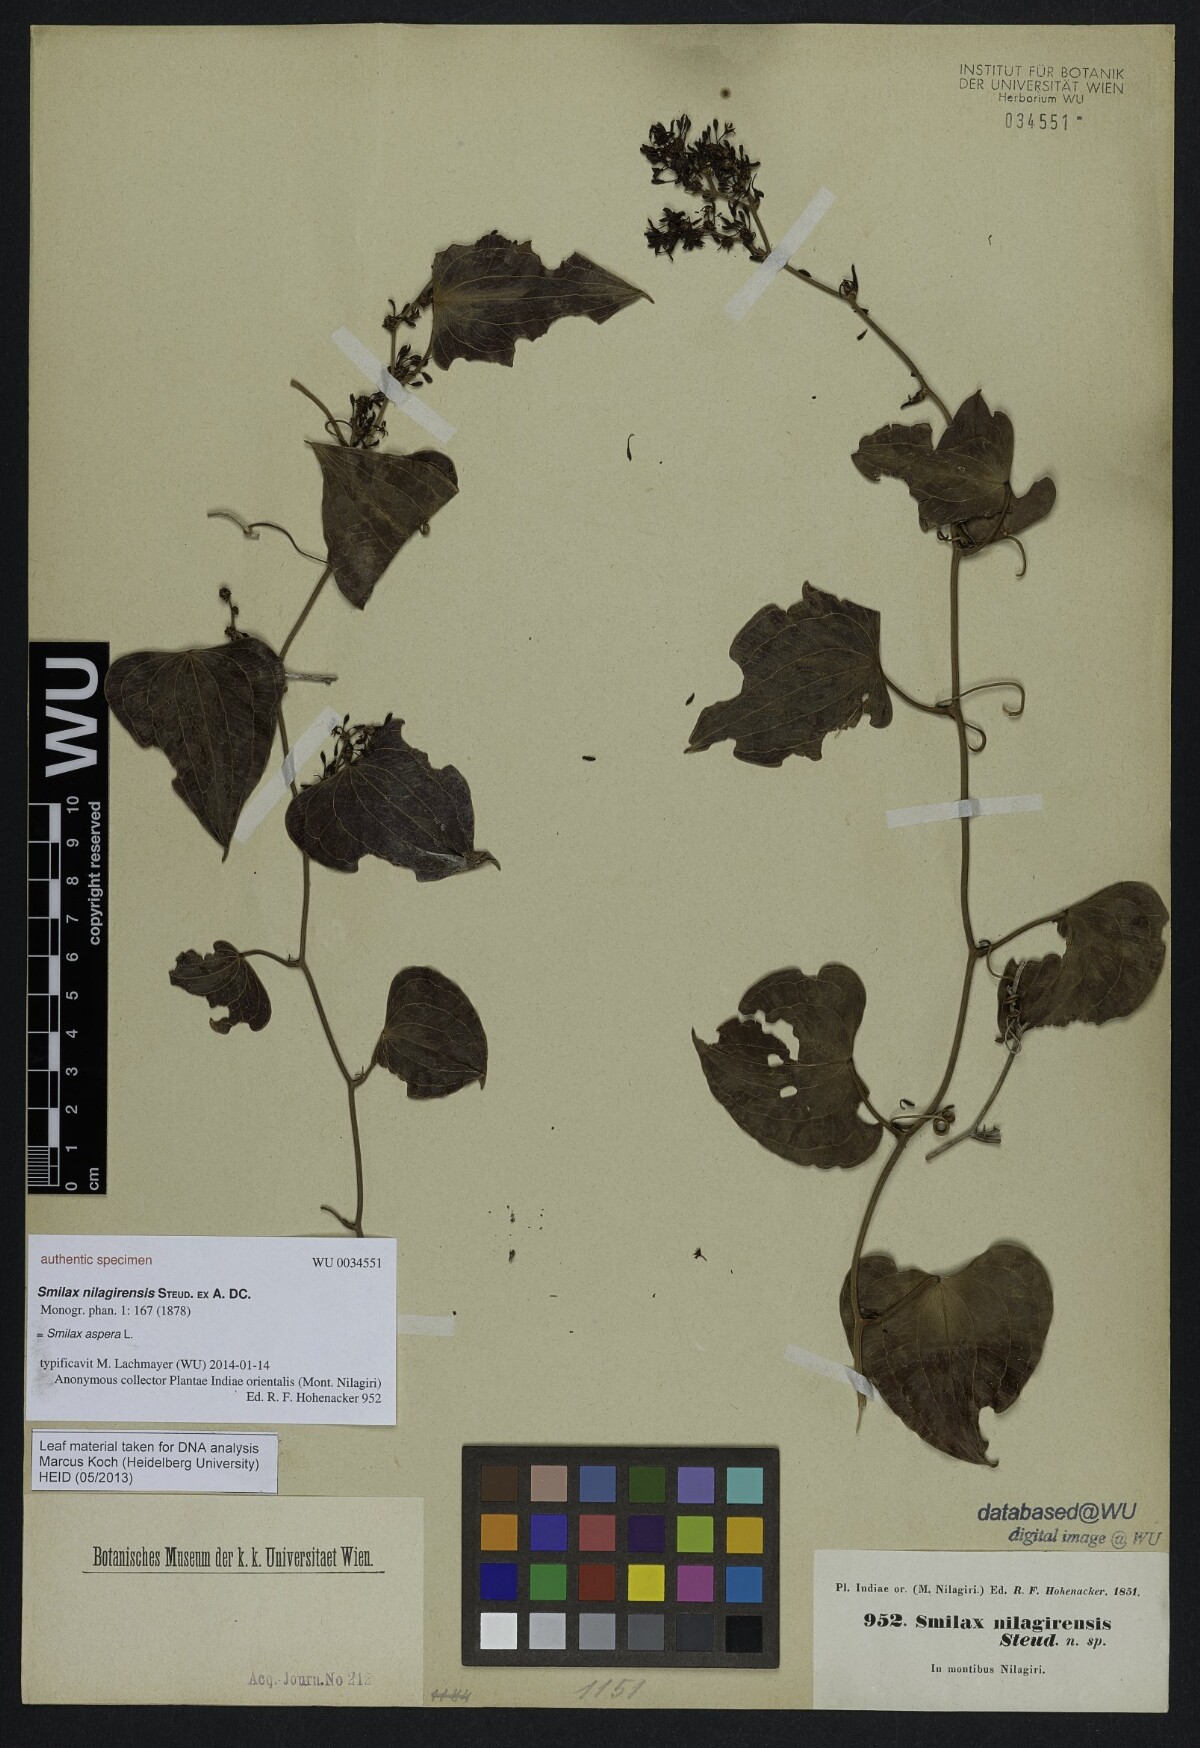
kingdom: Plantae
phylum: Tracheophyta
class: Liliopsida
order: Liliales
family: Smilacaceae
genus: Smilax
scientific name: Smilax aspera
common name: Common smilax
